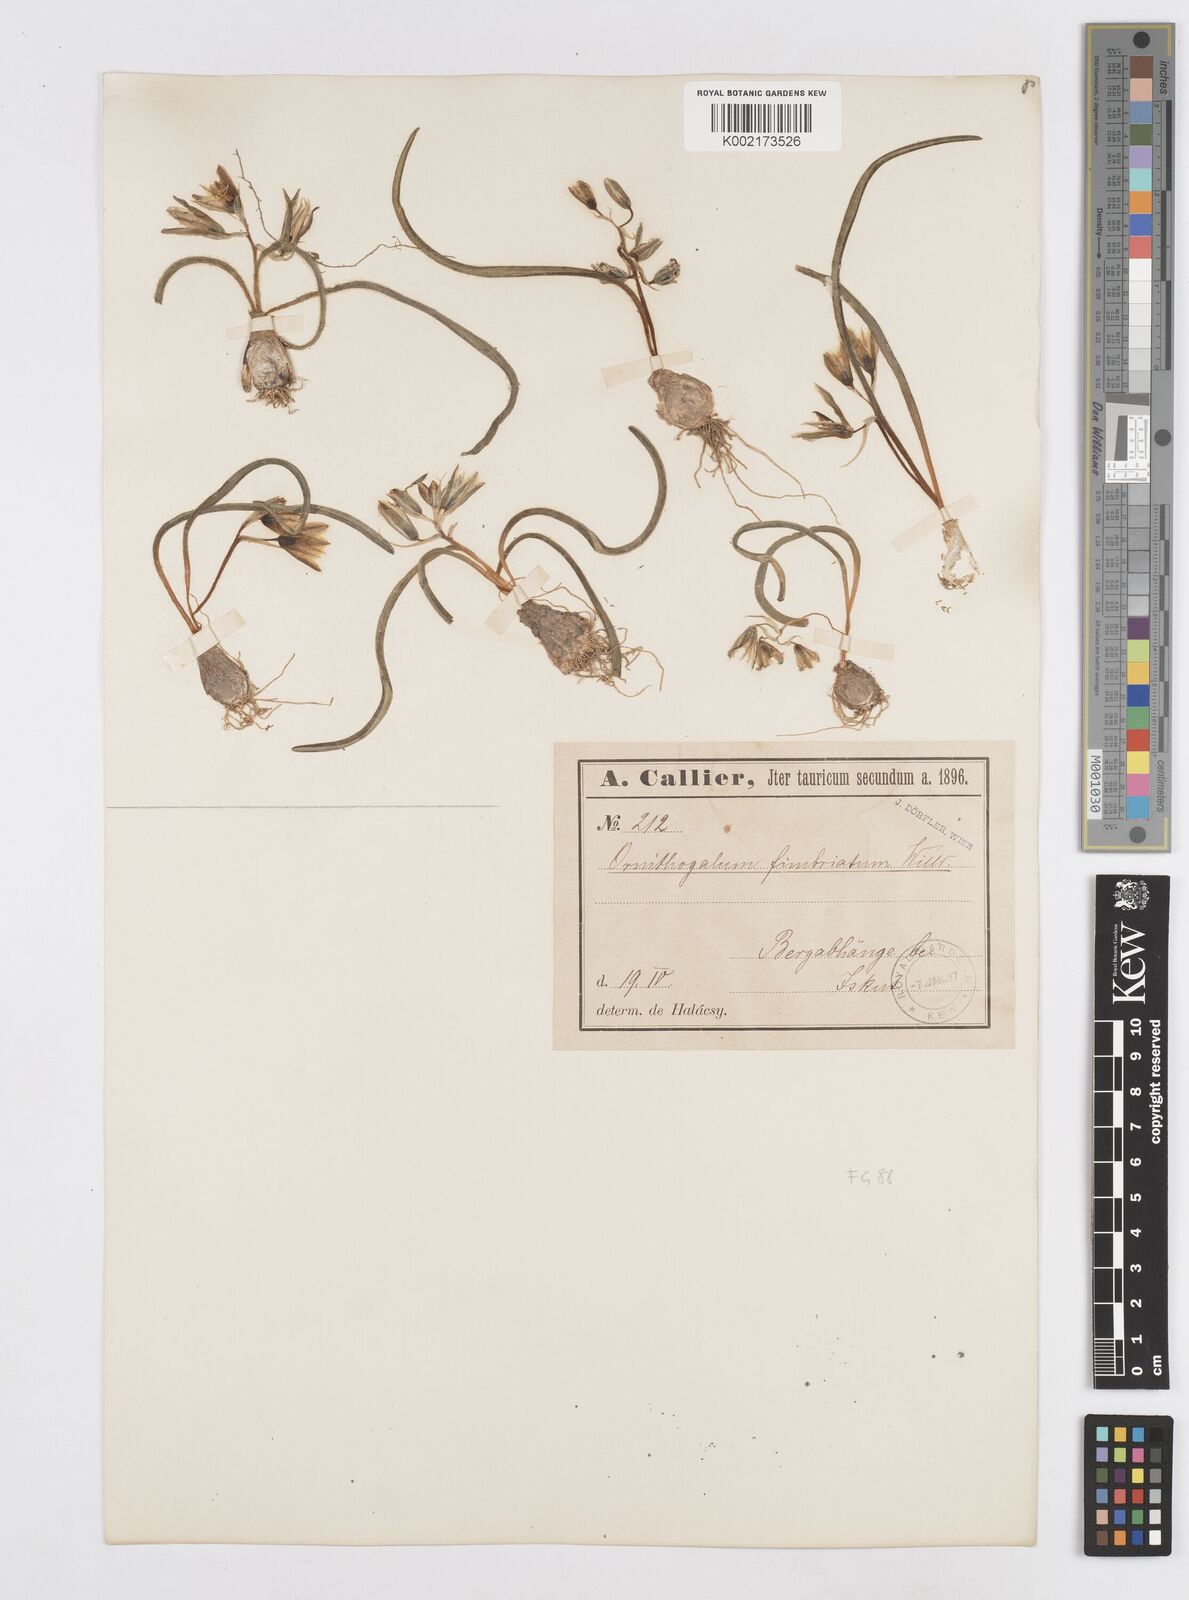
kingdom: Plantae
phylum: Tracheophyta
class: Liliopsida
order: Asparagales
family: Asparagaceae
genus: Ornithogalum
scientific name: Ornithogalum fimbriatum
